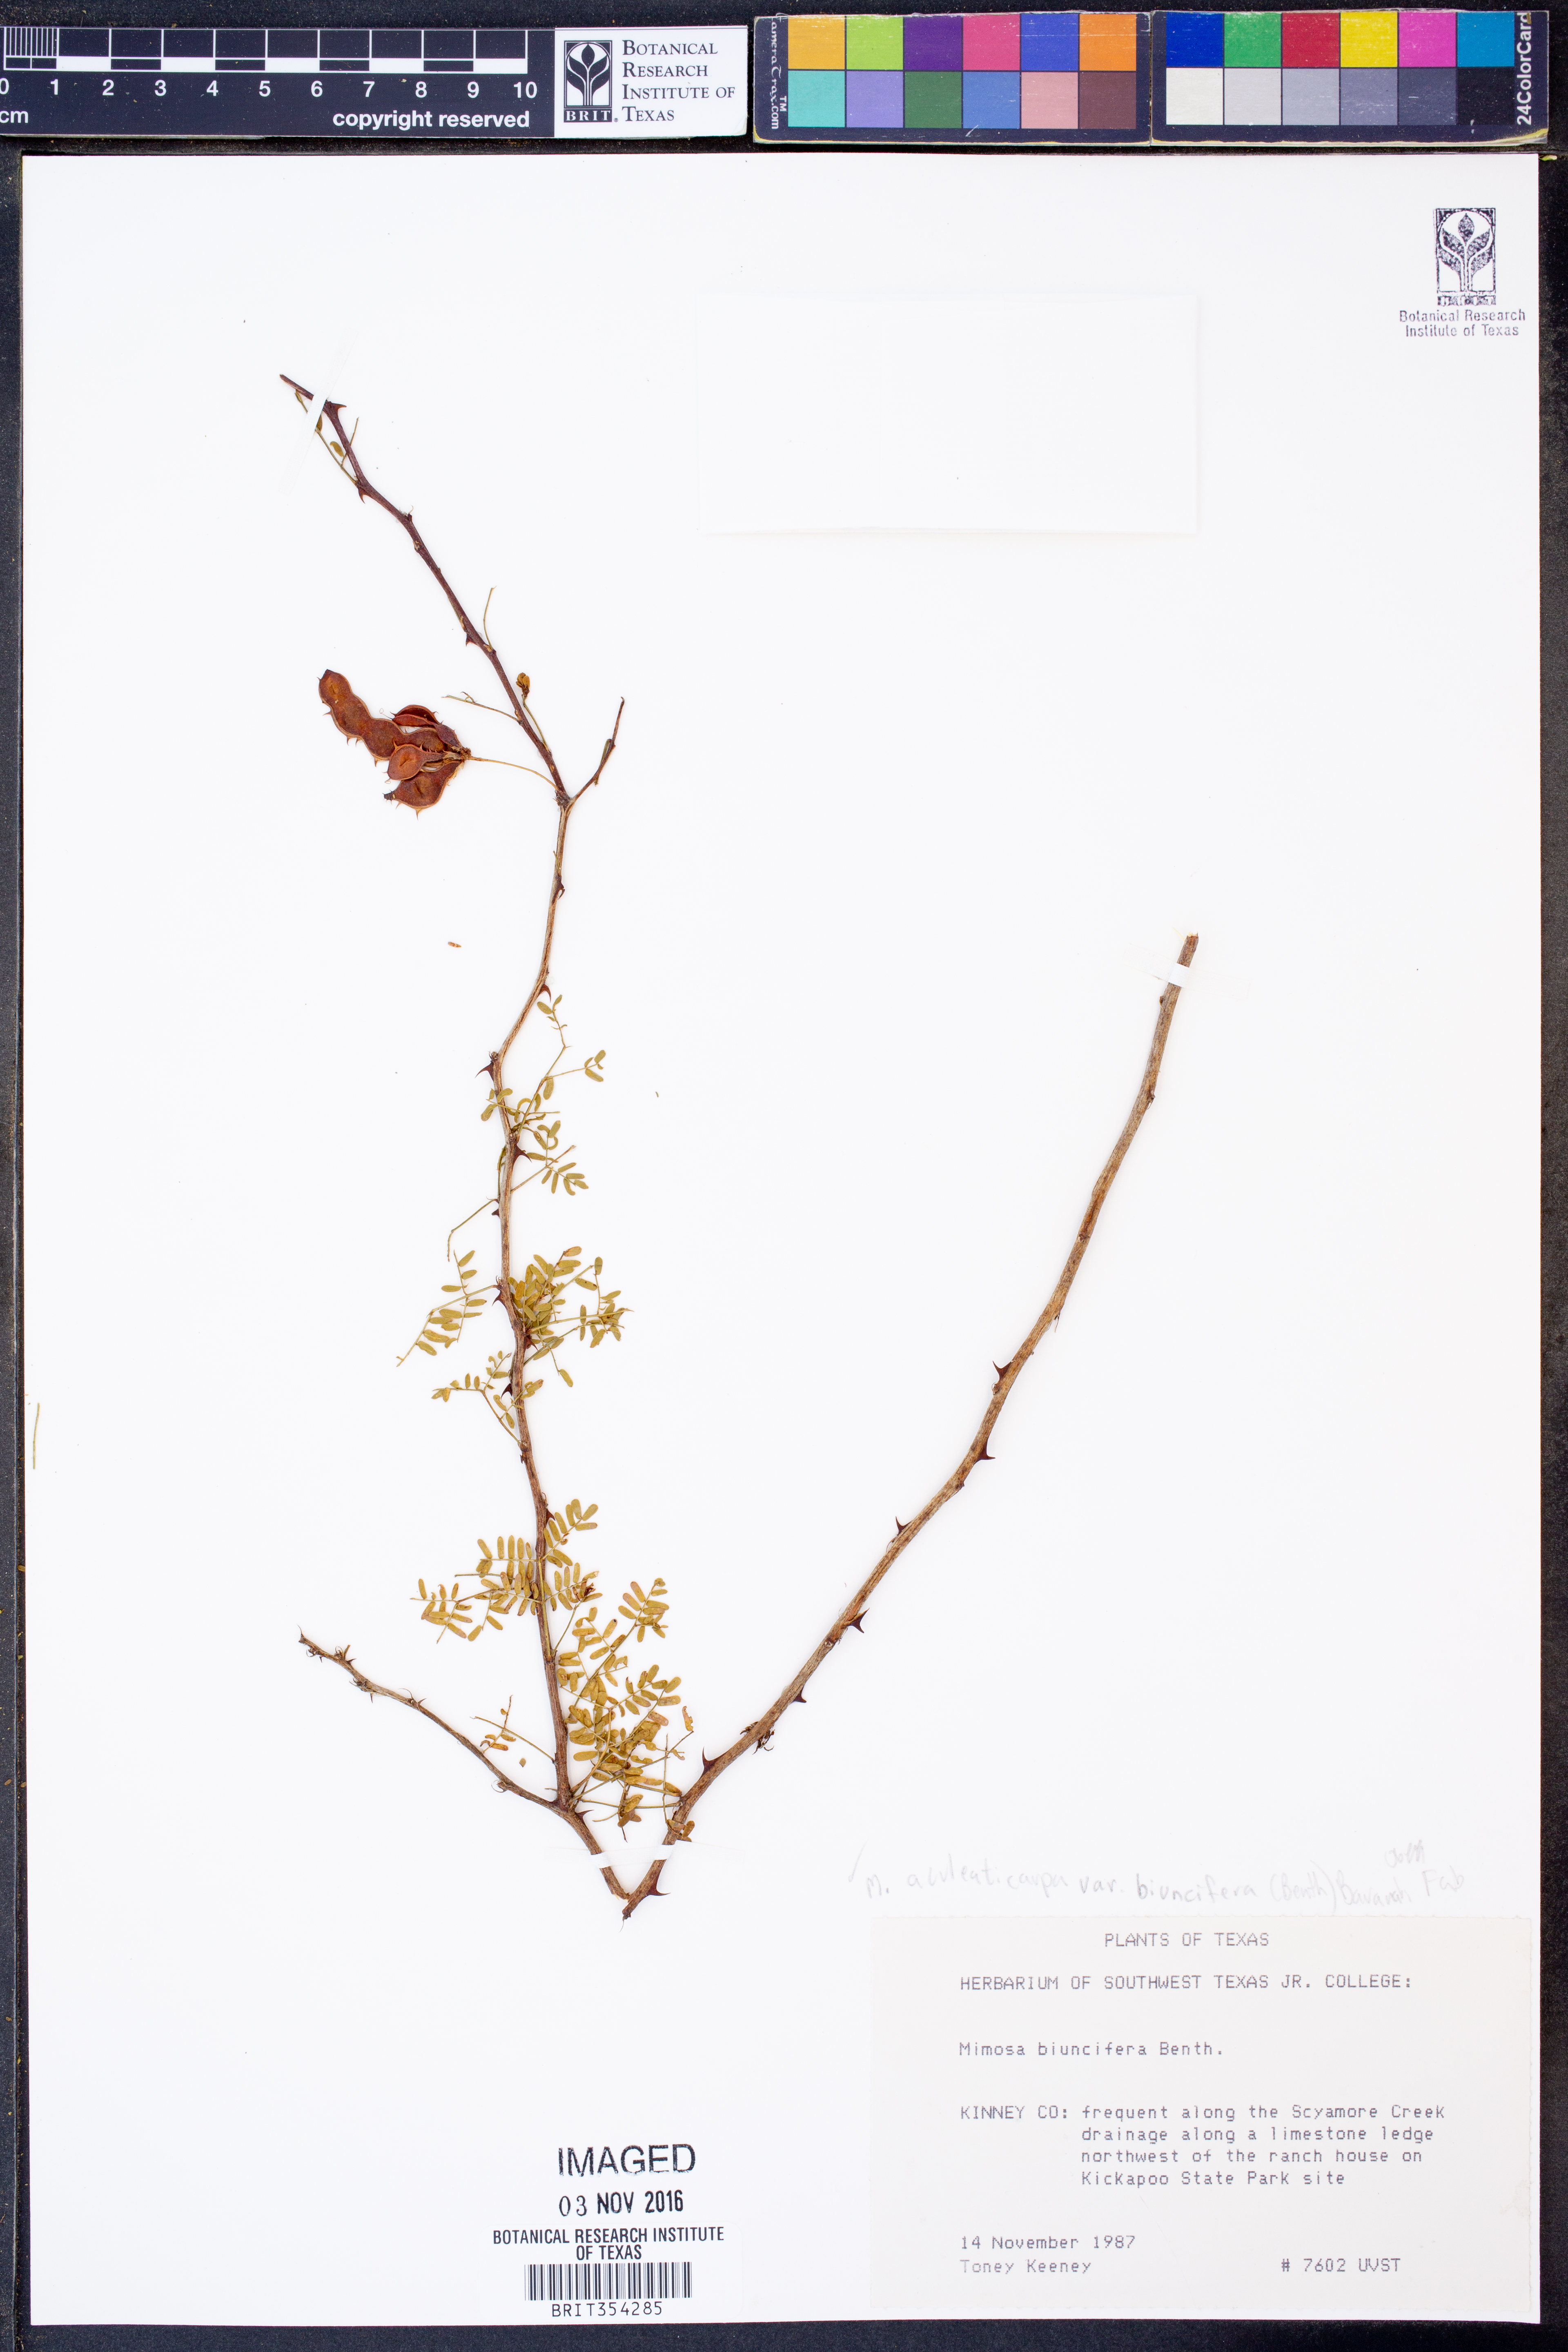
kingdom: Plantae
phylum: Tracheophyta
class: Magnoliopsida
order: Fabales
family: Fabaceae
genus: Mimosa
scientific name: Mimosa biuncifera
